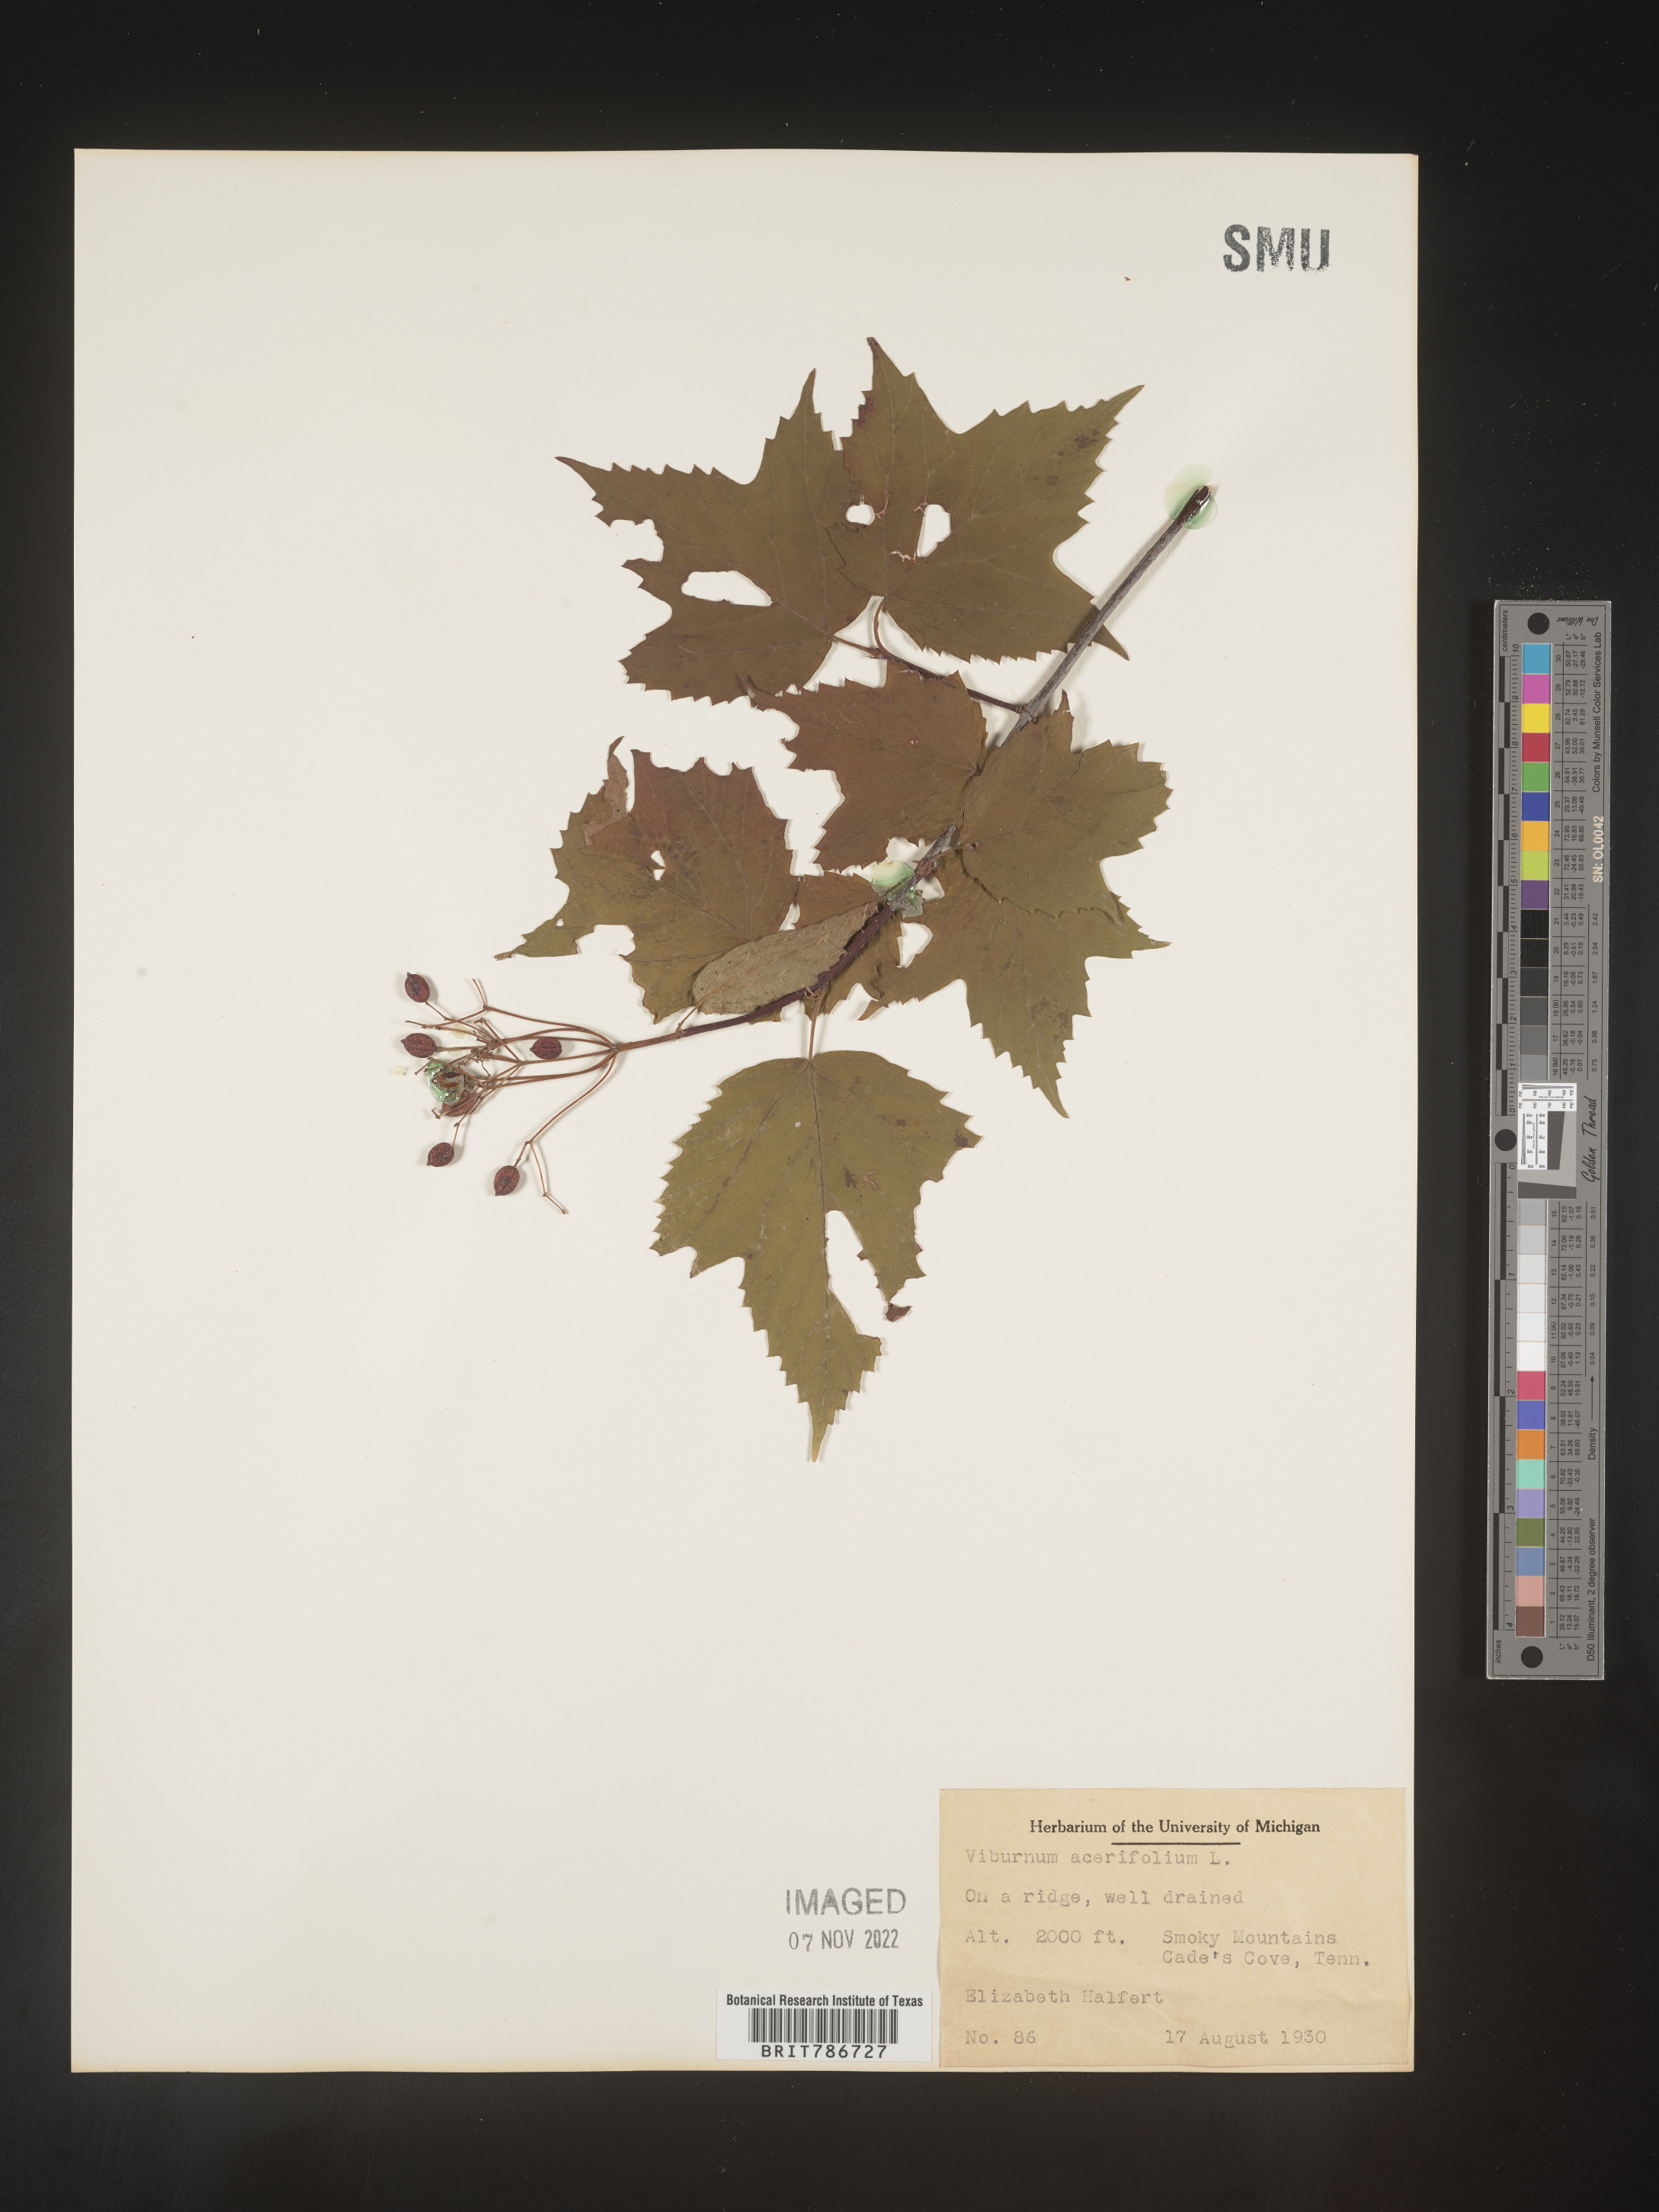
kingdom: Plantae
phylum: Tracheophyta
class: Magnoliopsida
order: Dipsacales
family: Viburnaceae
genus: Viburnum
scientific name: Viburnum acerifolium
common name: Dockmackie
